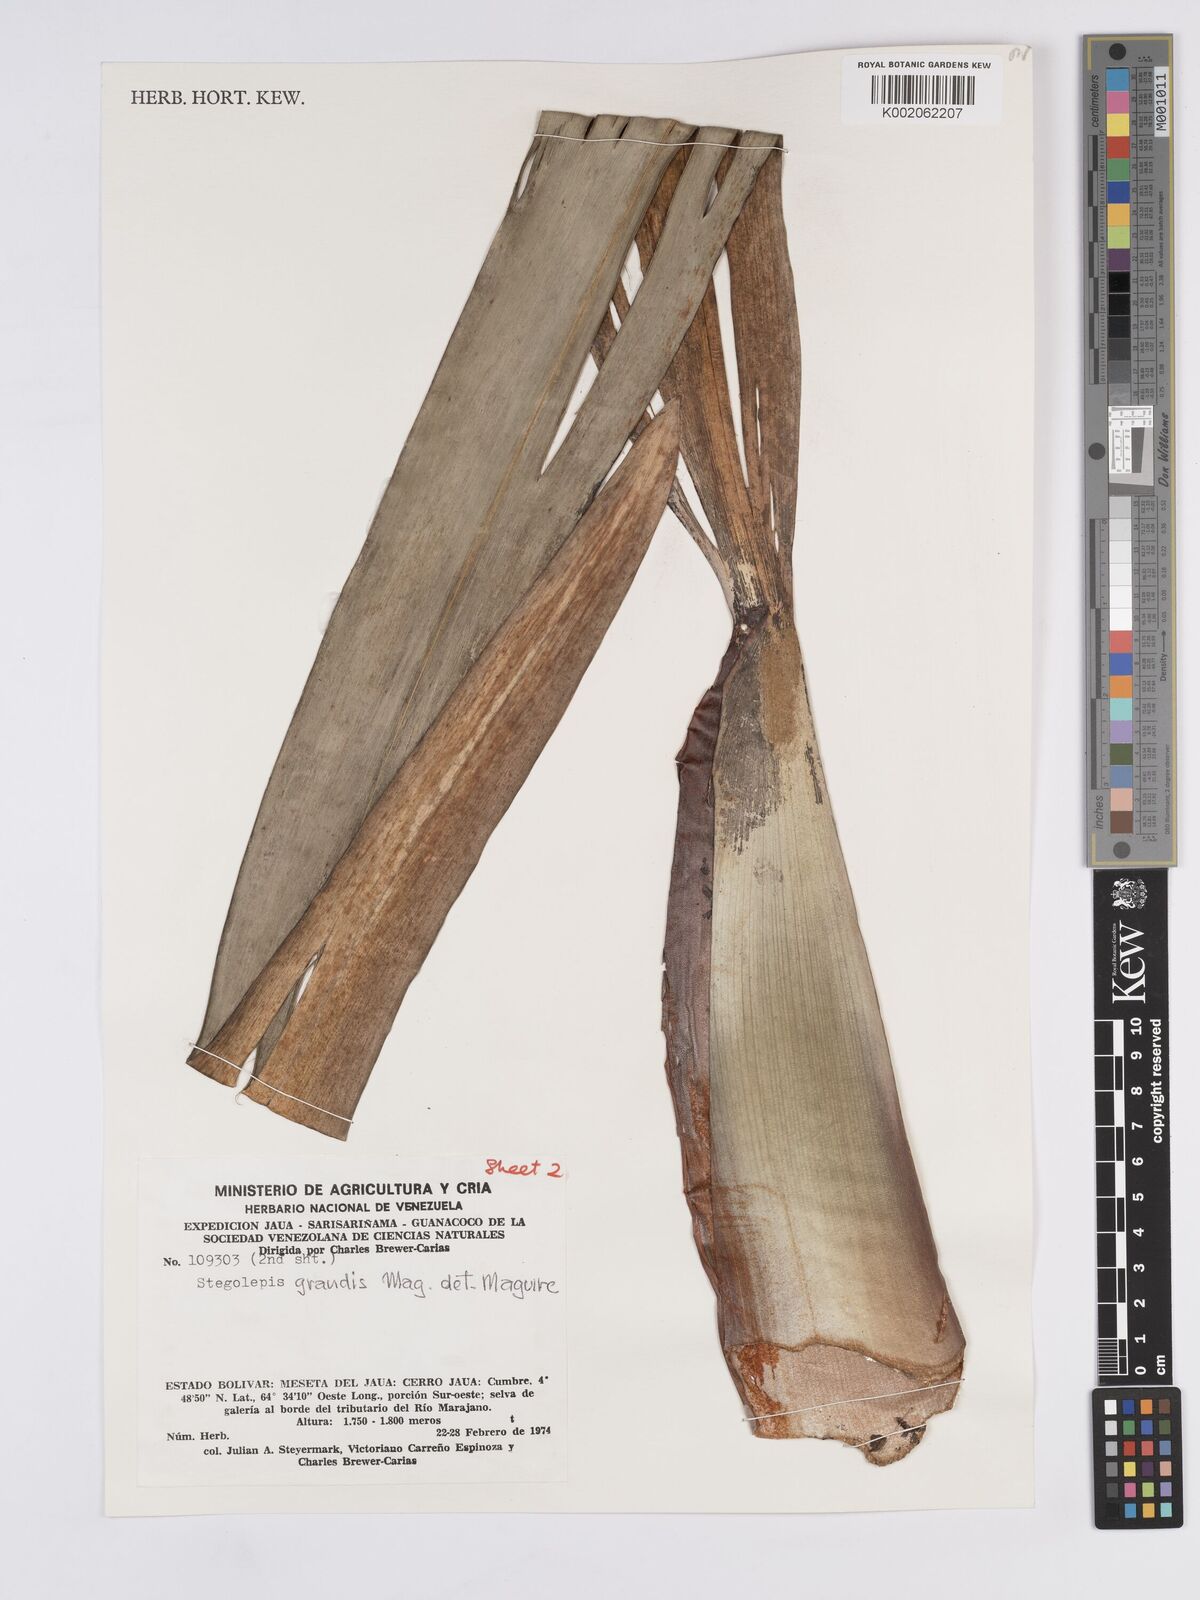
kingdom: Plantae
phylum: Tracheophyta
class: Liliopsida
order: Poales
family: Rapateaceae
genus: Stegolepis
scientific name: Stegolepis grandis
